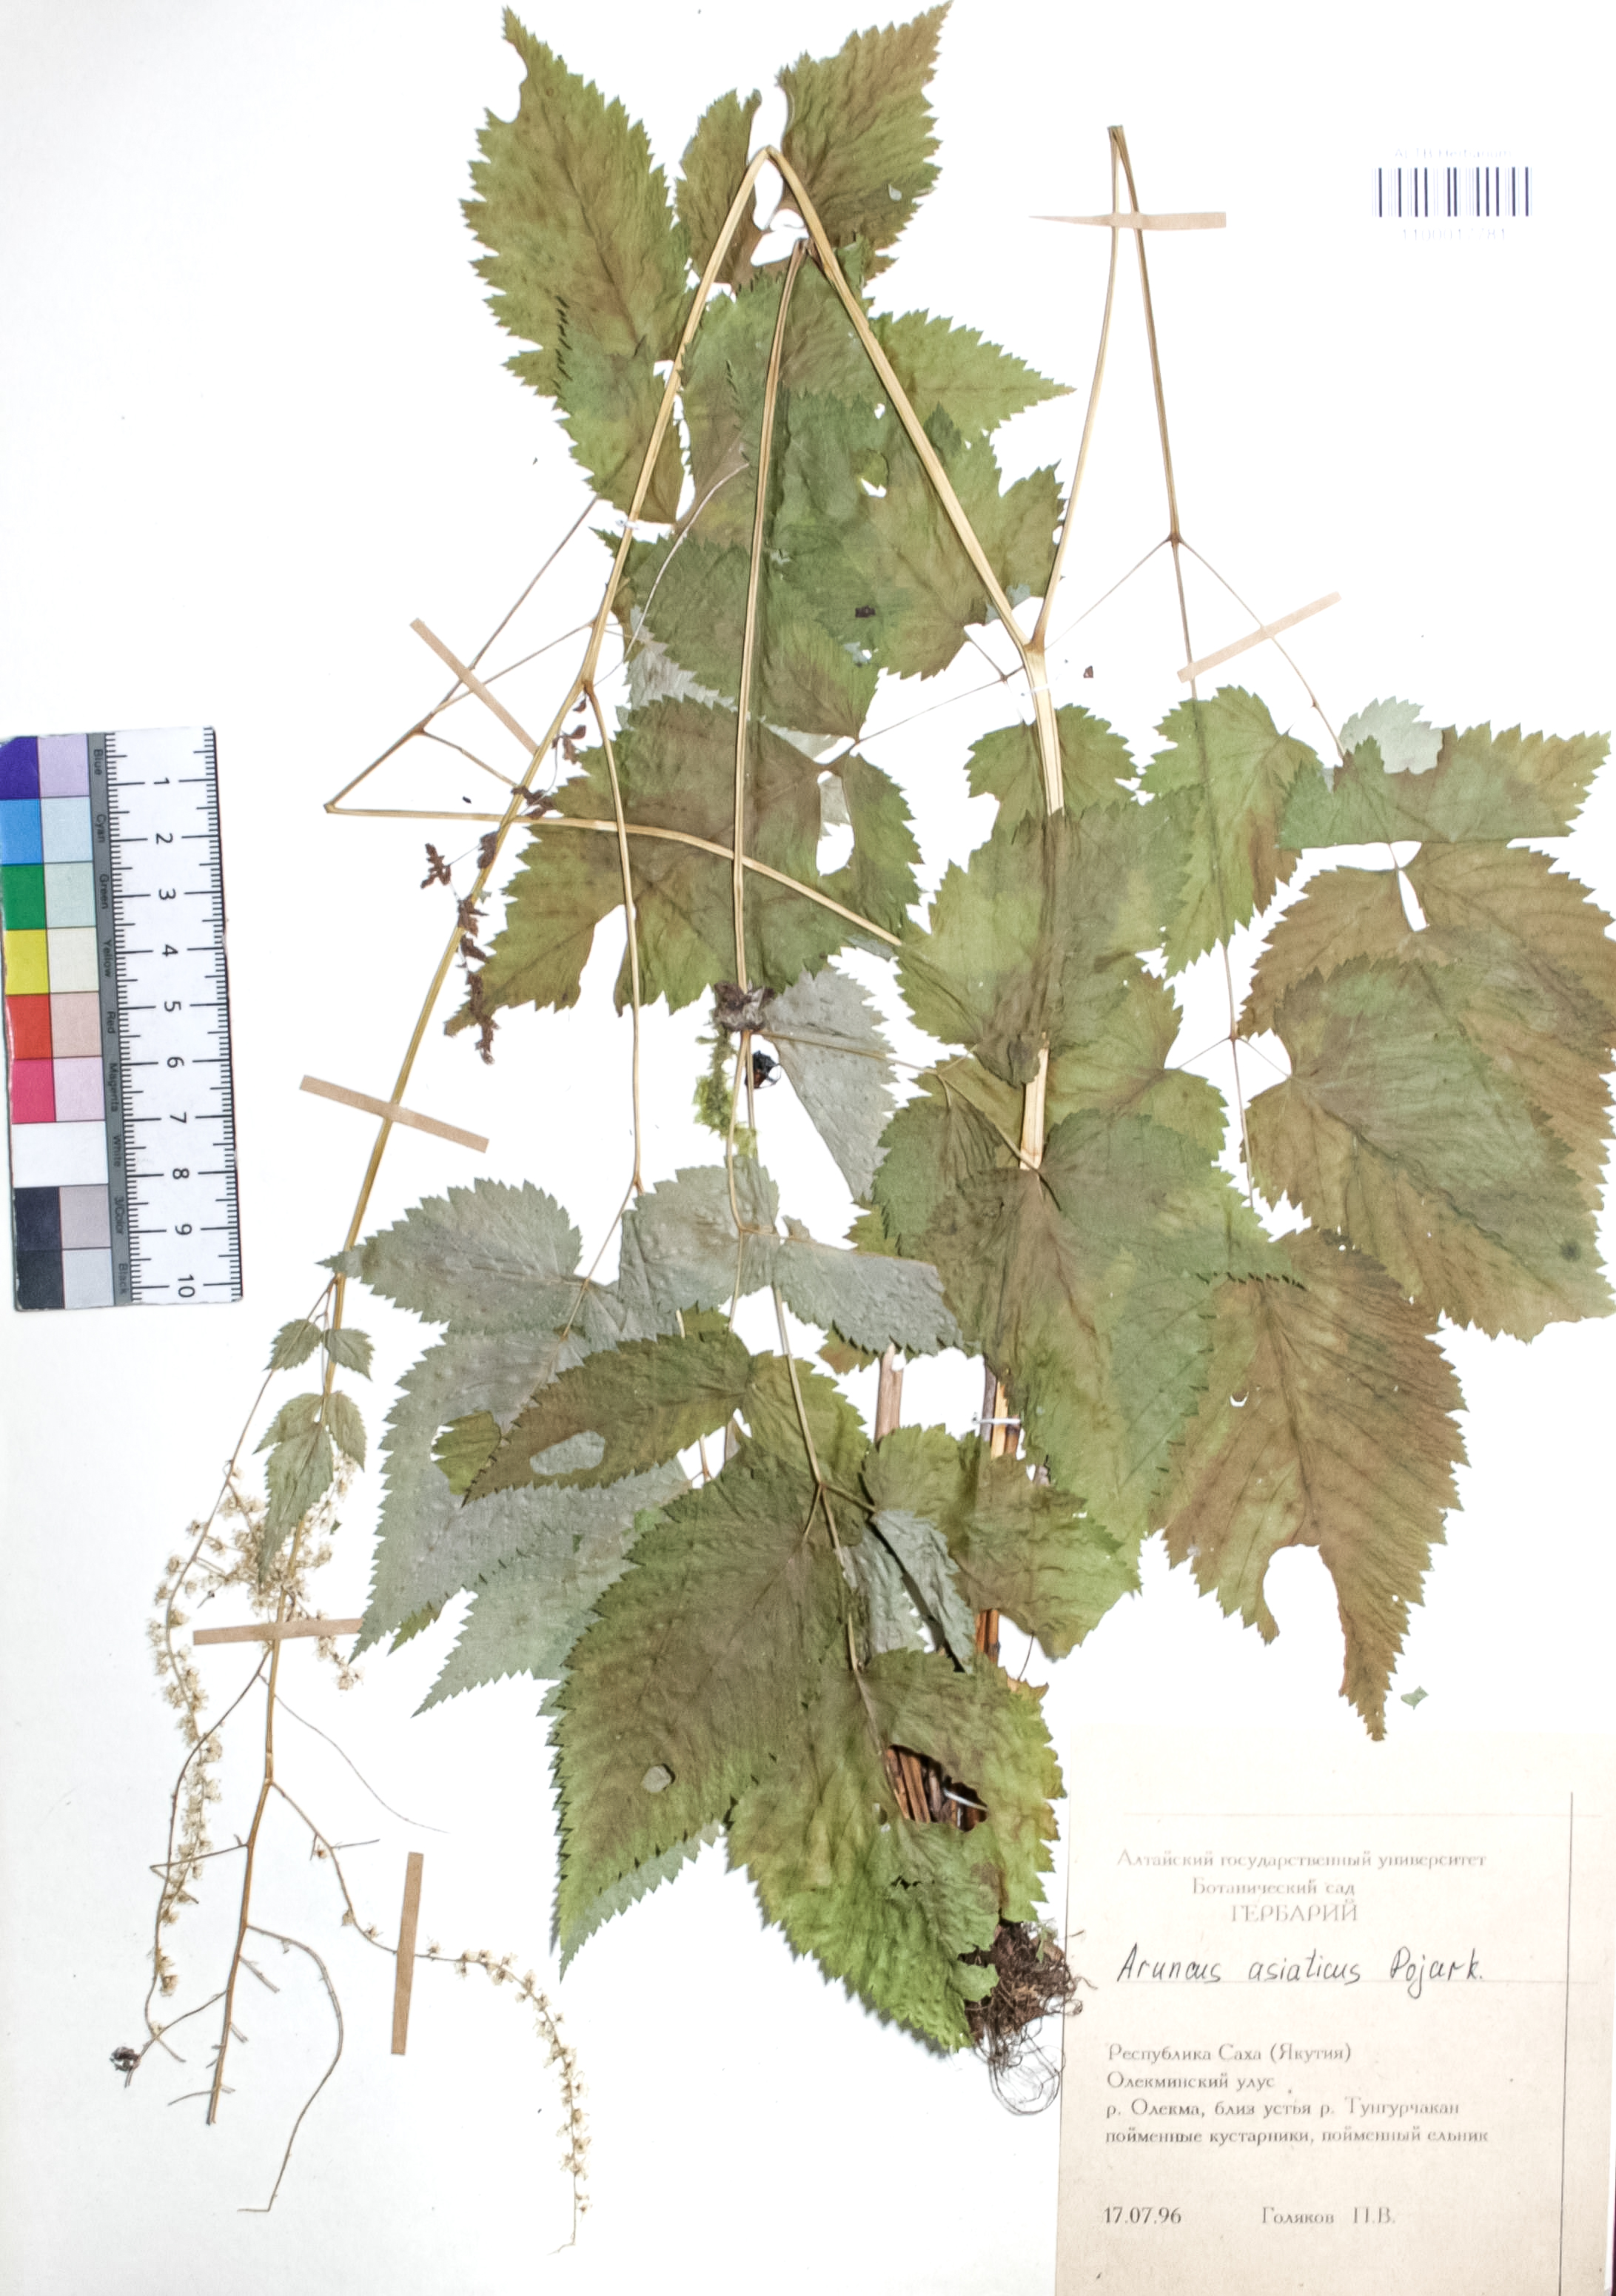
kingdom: Plantae
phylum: Tracheophyta
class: Magnoliopsida
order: Rosales
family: Rosaceae
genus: Aruncus
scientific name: Aruncus sylvester
